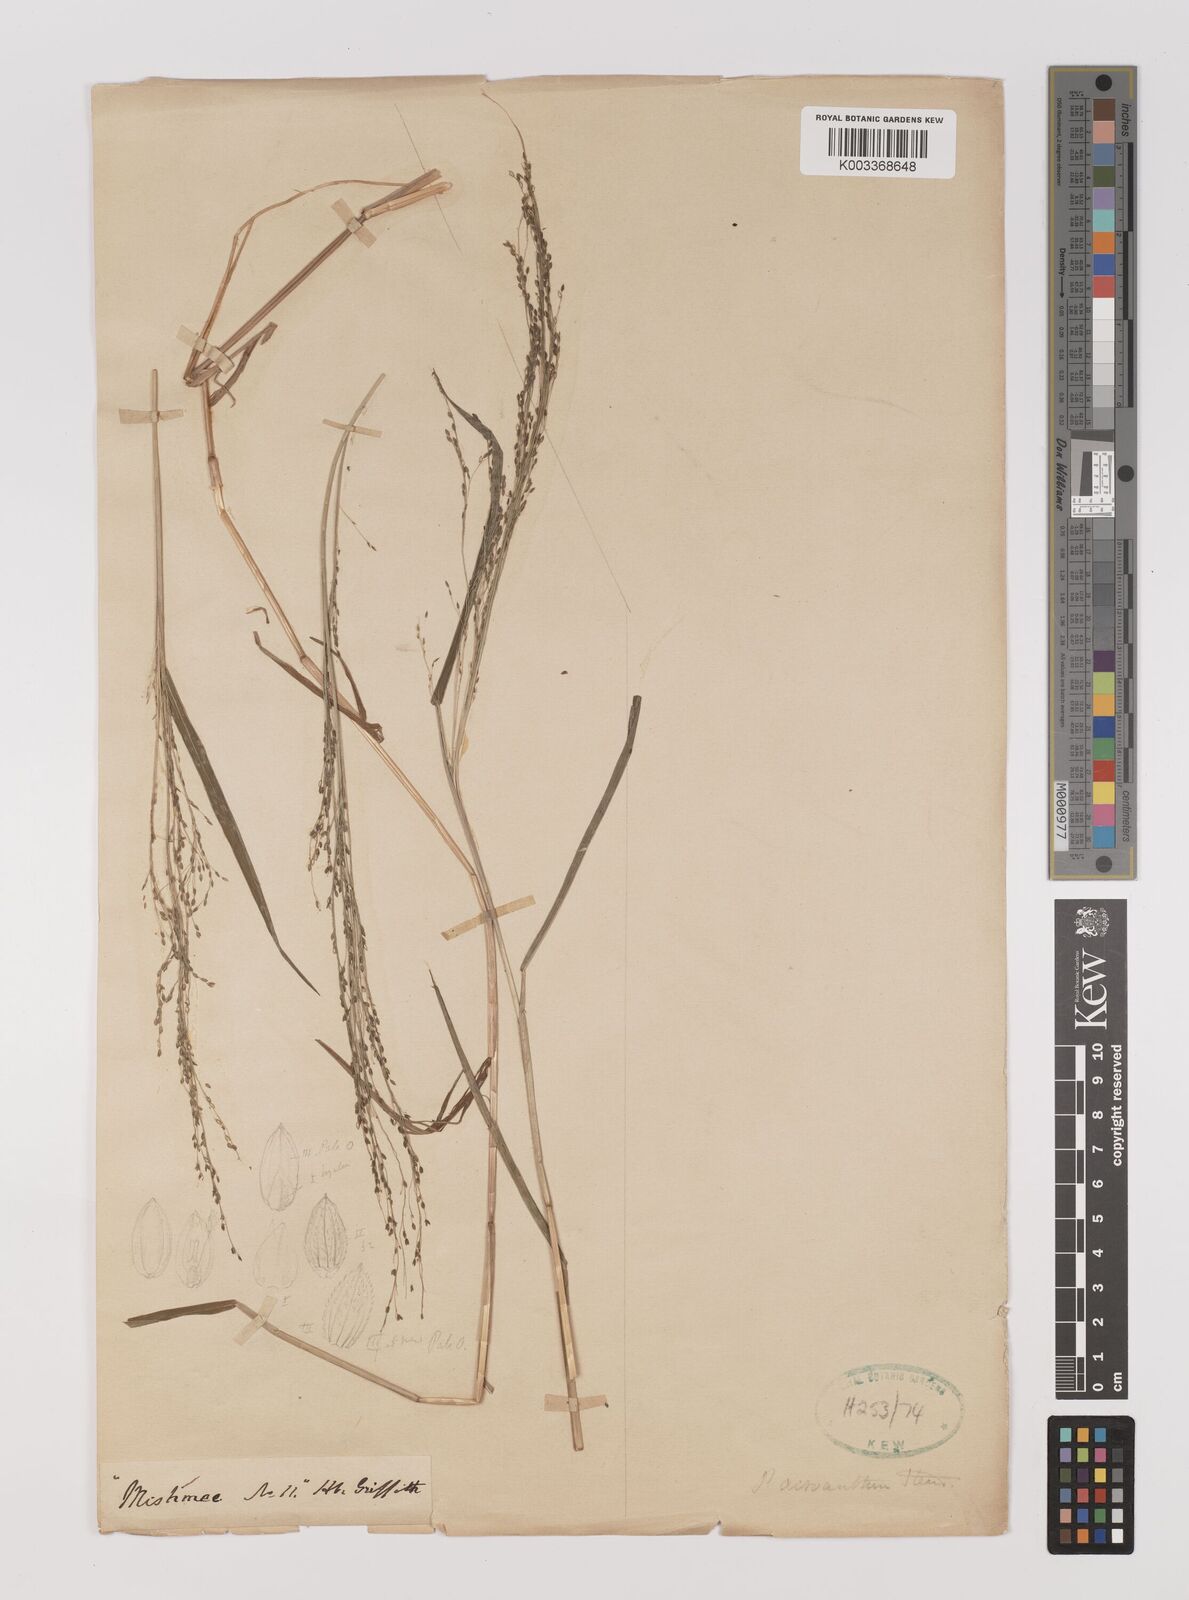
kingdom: Plantae
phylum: Tracheophyta
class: Liliopsida
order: Poales
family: Poaceae
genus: Panicum
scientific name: Panicum bisulcatum
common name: Japanese panicgrass
